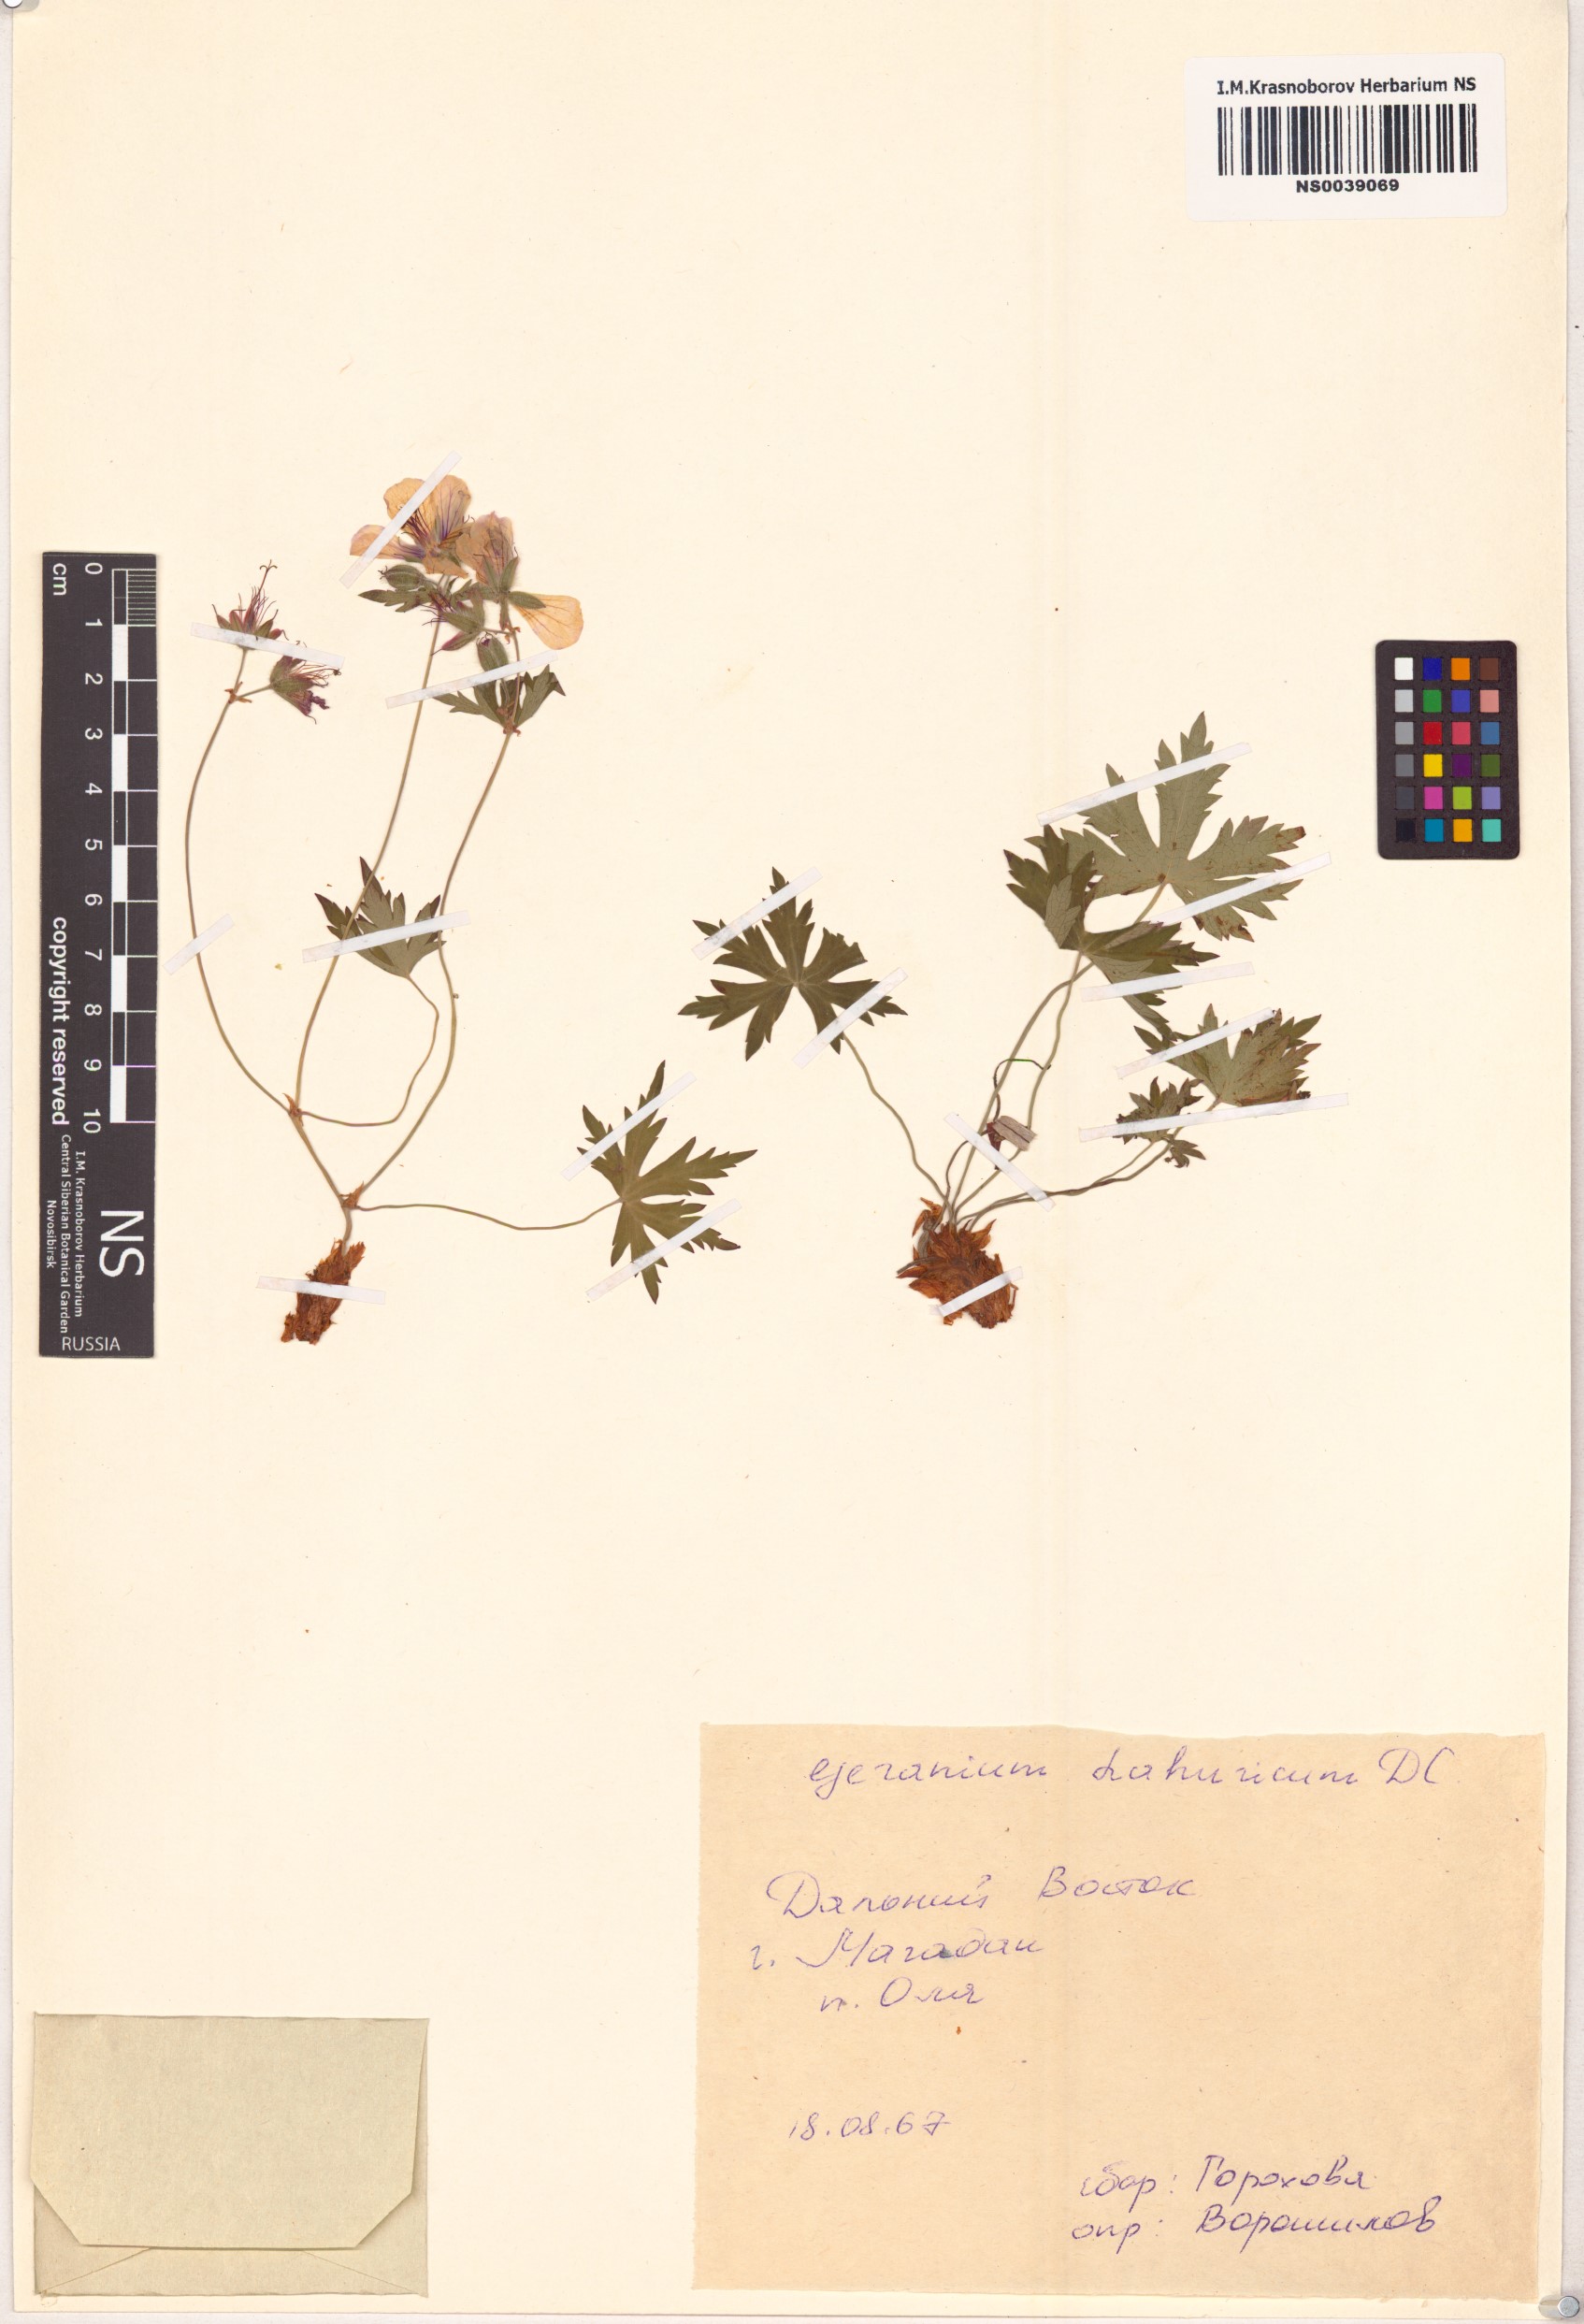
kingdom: Plantae
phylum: Tracheophyta
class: Magnoliopsida
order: Geraniales
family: Geraniaceae
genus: Geranium
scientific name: Geranium dahuricum
